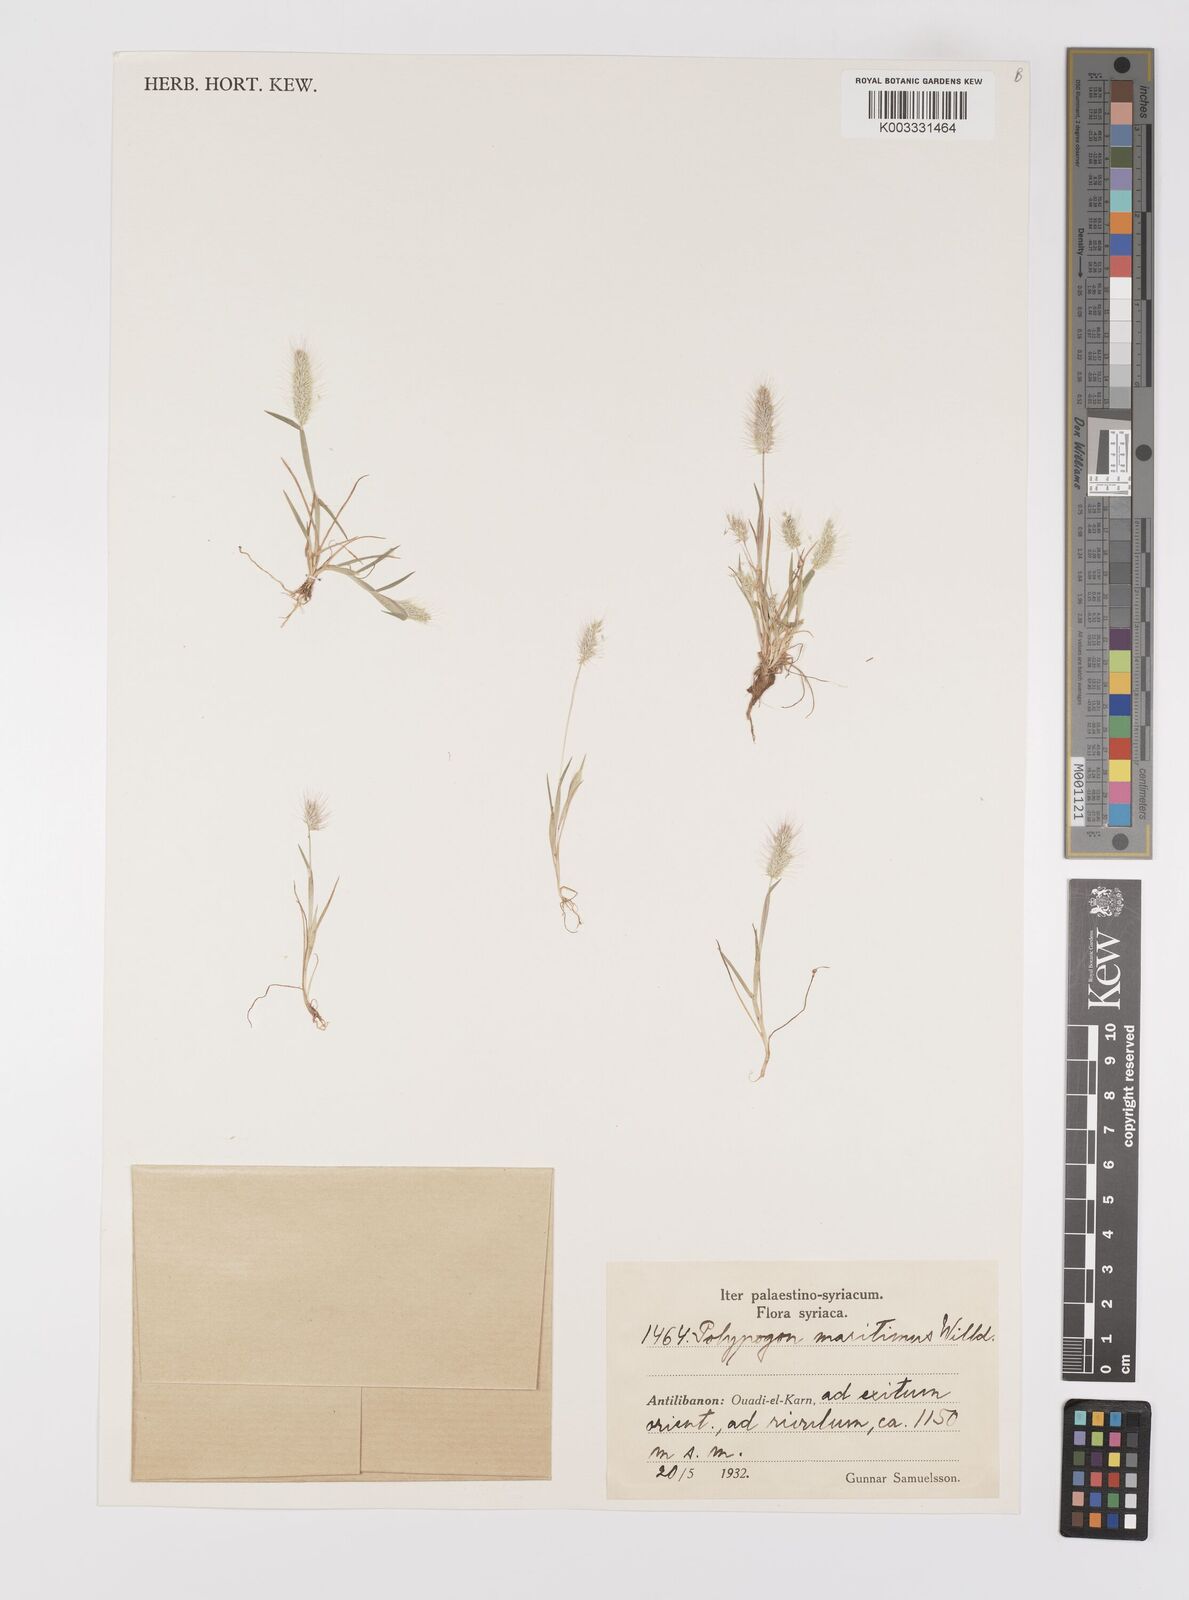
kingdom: Plantae
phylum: Tracheophyta
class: Liliopsida
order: Poales
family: Poaceae
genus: Polypogon
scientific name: Polypogon maritimus
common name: Mediterranean rabbitsfoot grass
